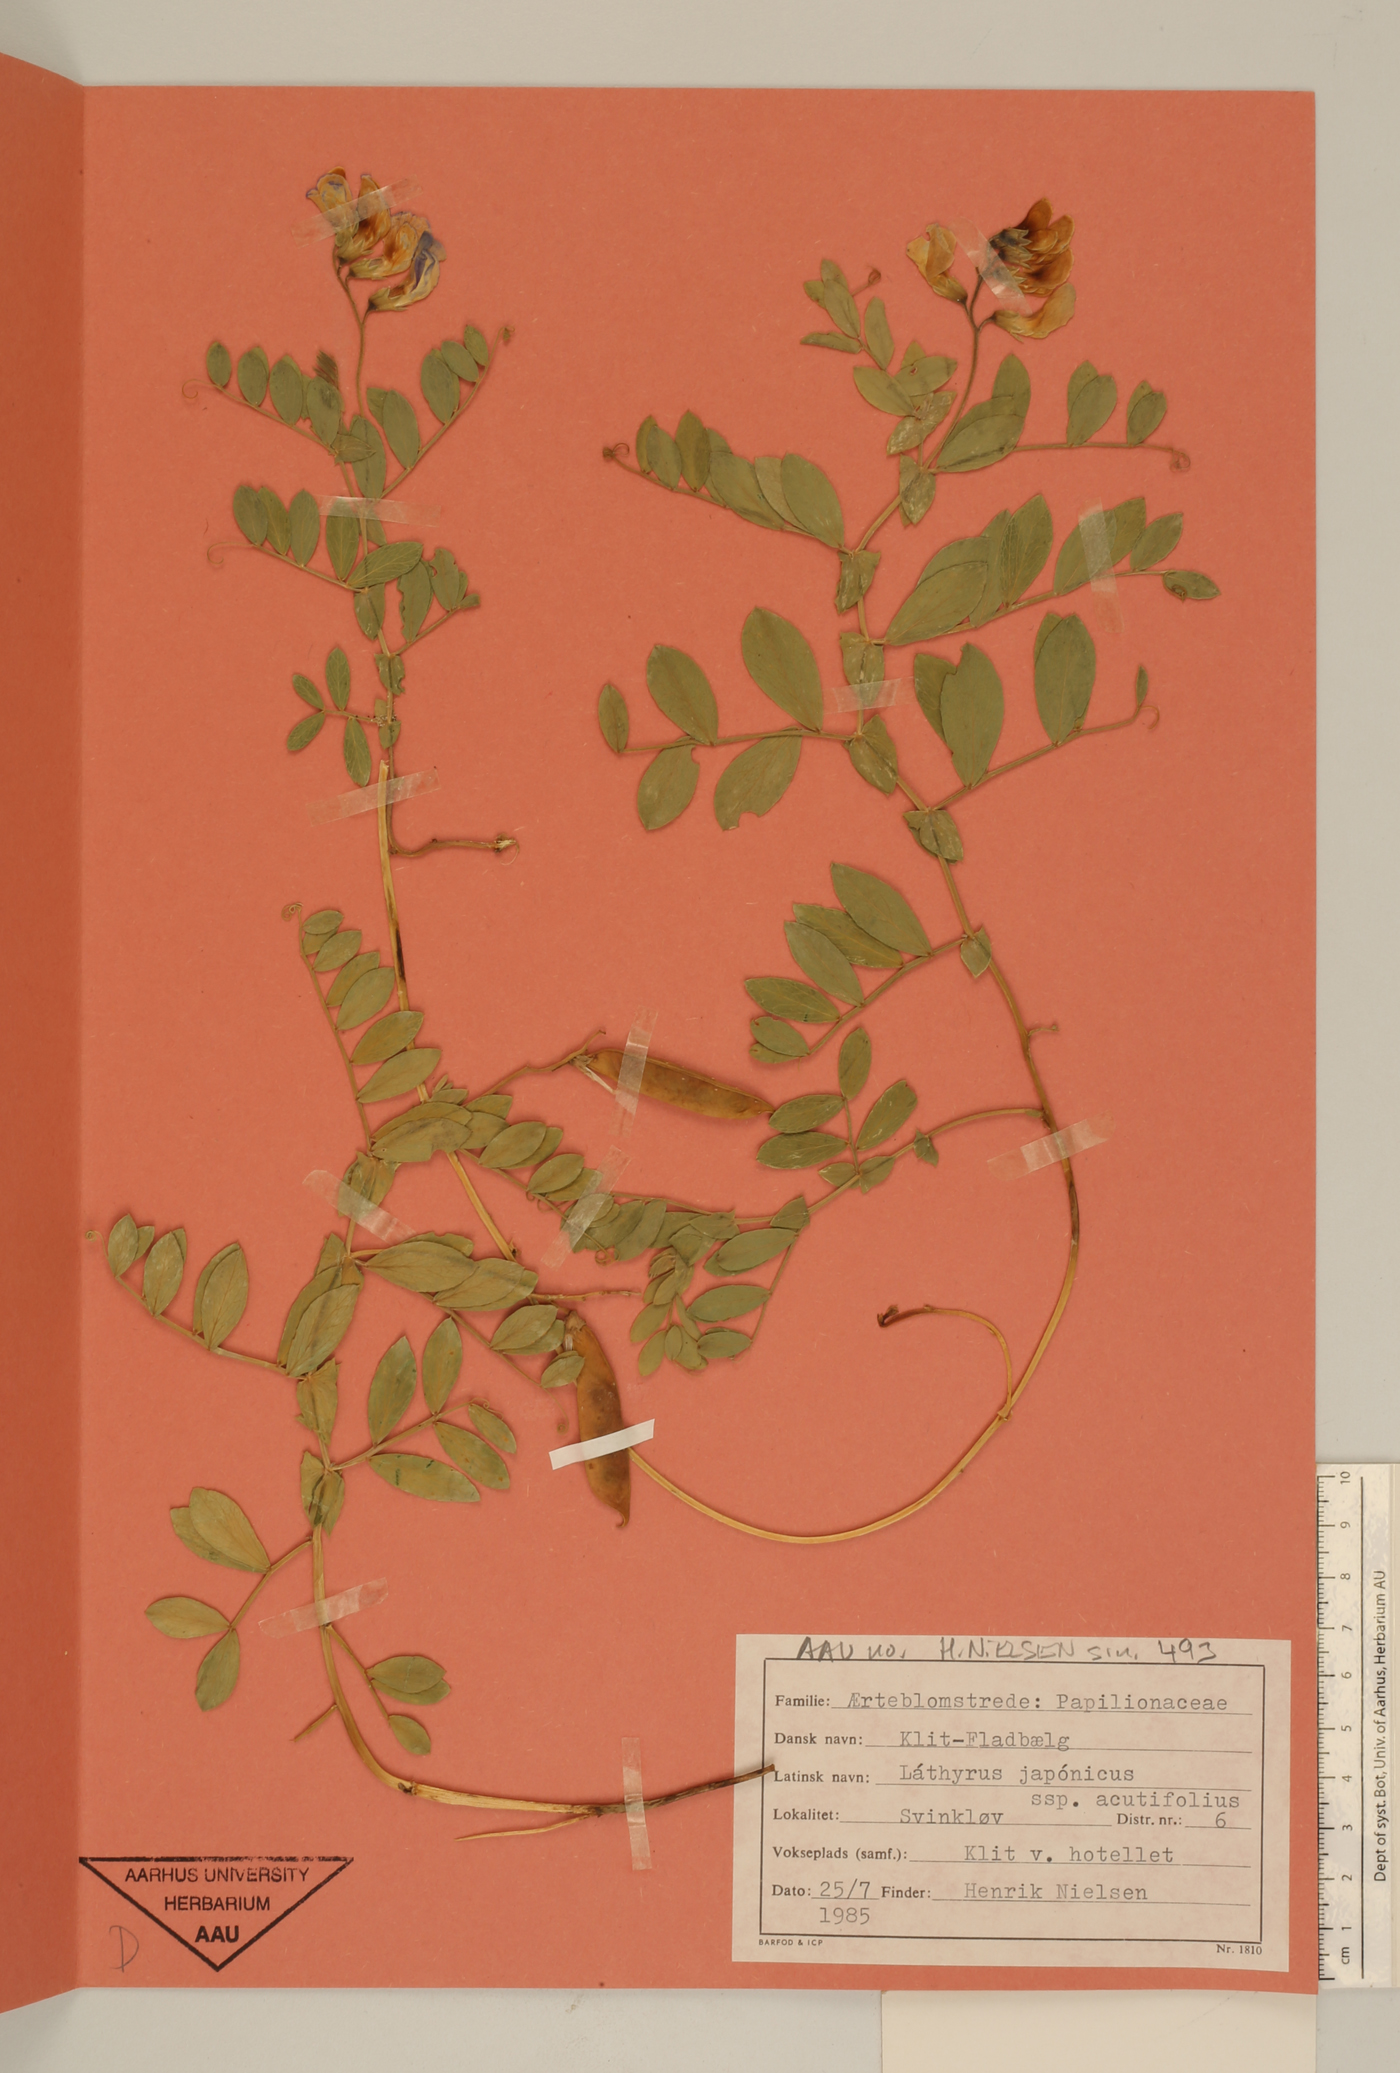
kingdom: Plantae
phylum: Tracheophyta
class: Magnoliopsida
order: Fabales
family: Fabaceae
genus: Lathyrus
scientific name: Lathyrus japonicus
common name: Sea pea
